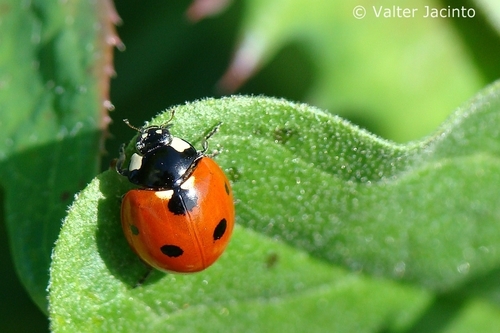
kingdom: Animalia
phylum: Arthropoda
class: Insecta
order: Coleoptera
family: Coccinellidae
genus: Coccinella
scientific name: Coccinella septempunctata
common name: Sevenspotted lady beetle
